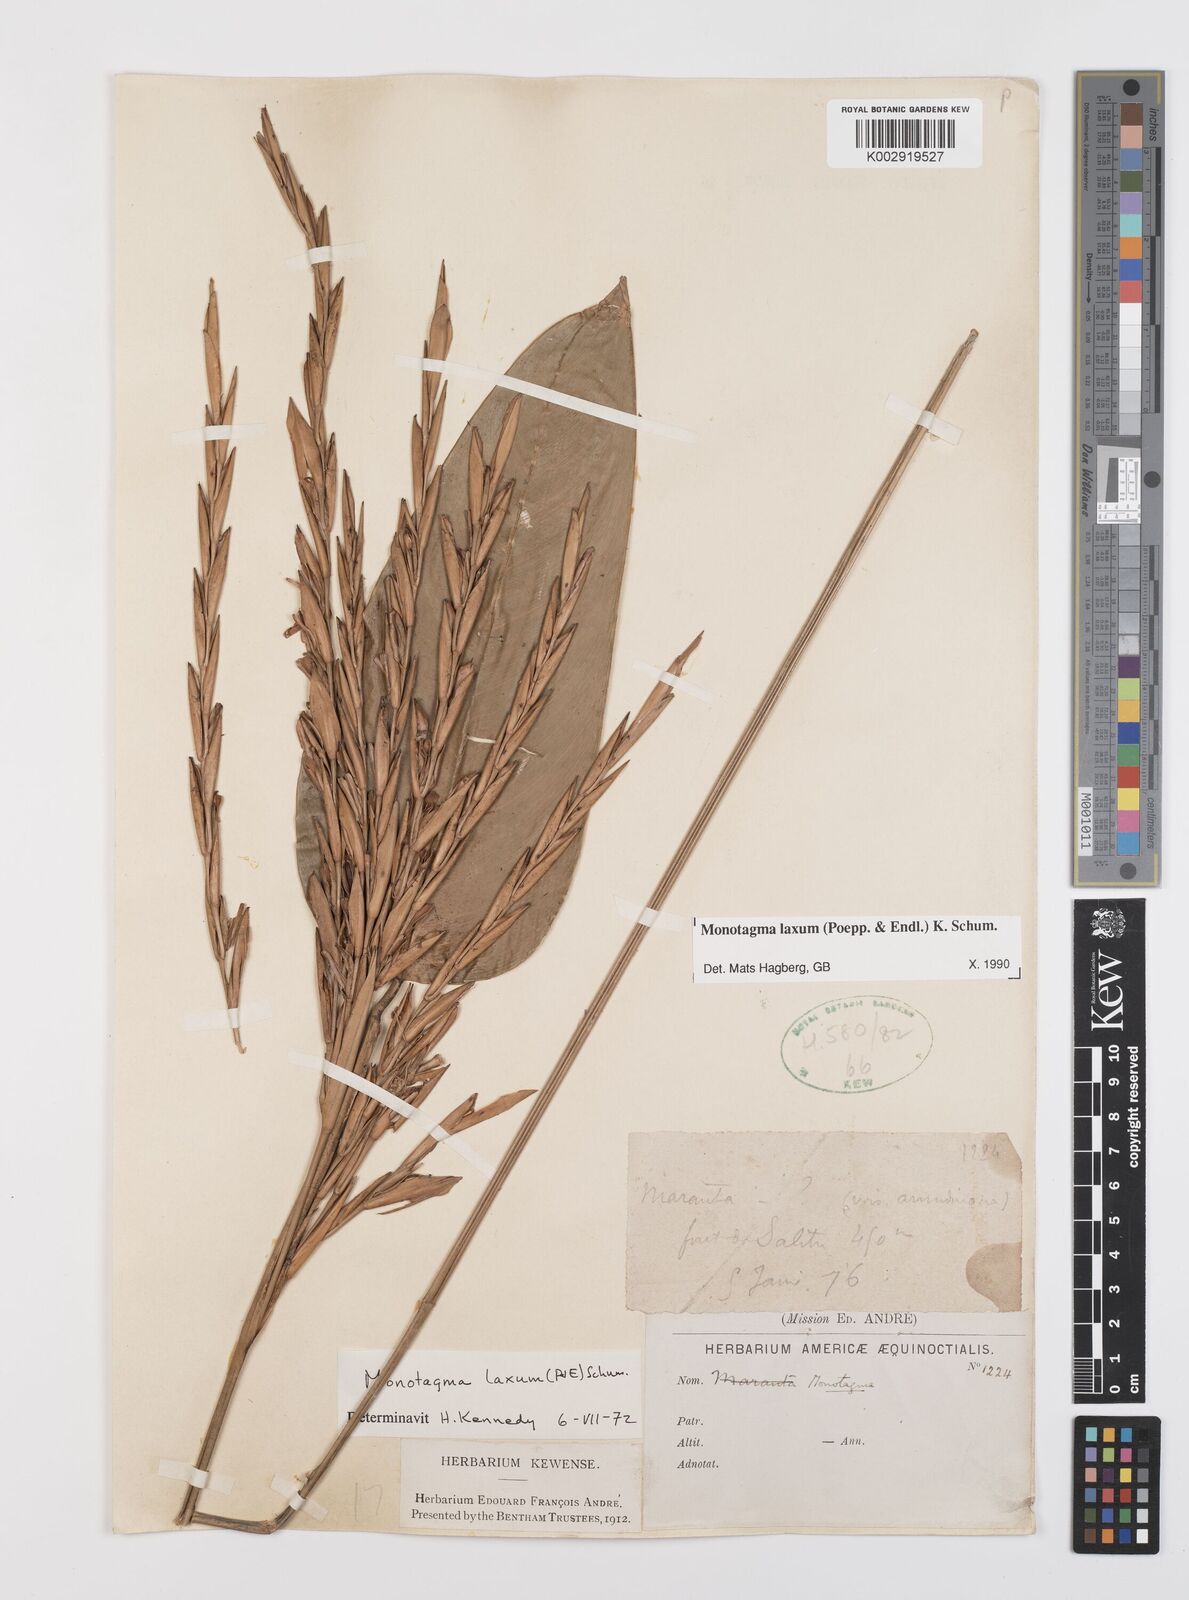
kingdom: Plantae
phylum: Tracheophyta
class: Liliopsida
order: Zingiberales
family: Marantaceae
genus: Monotagma
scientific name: Monotagma laxum
